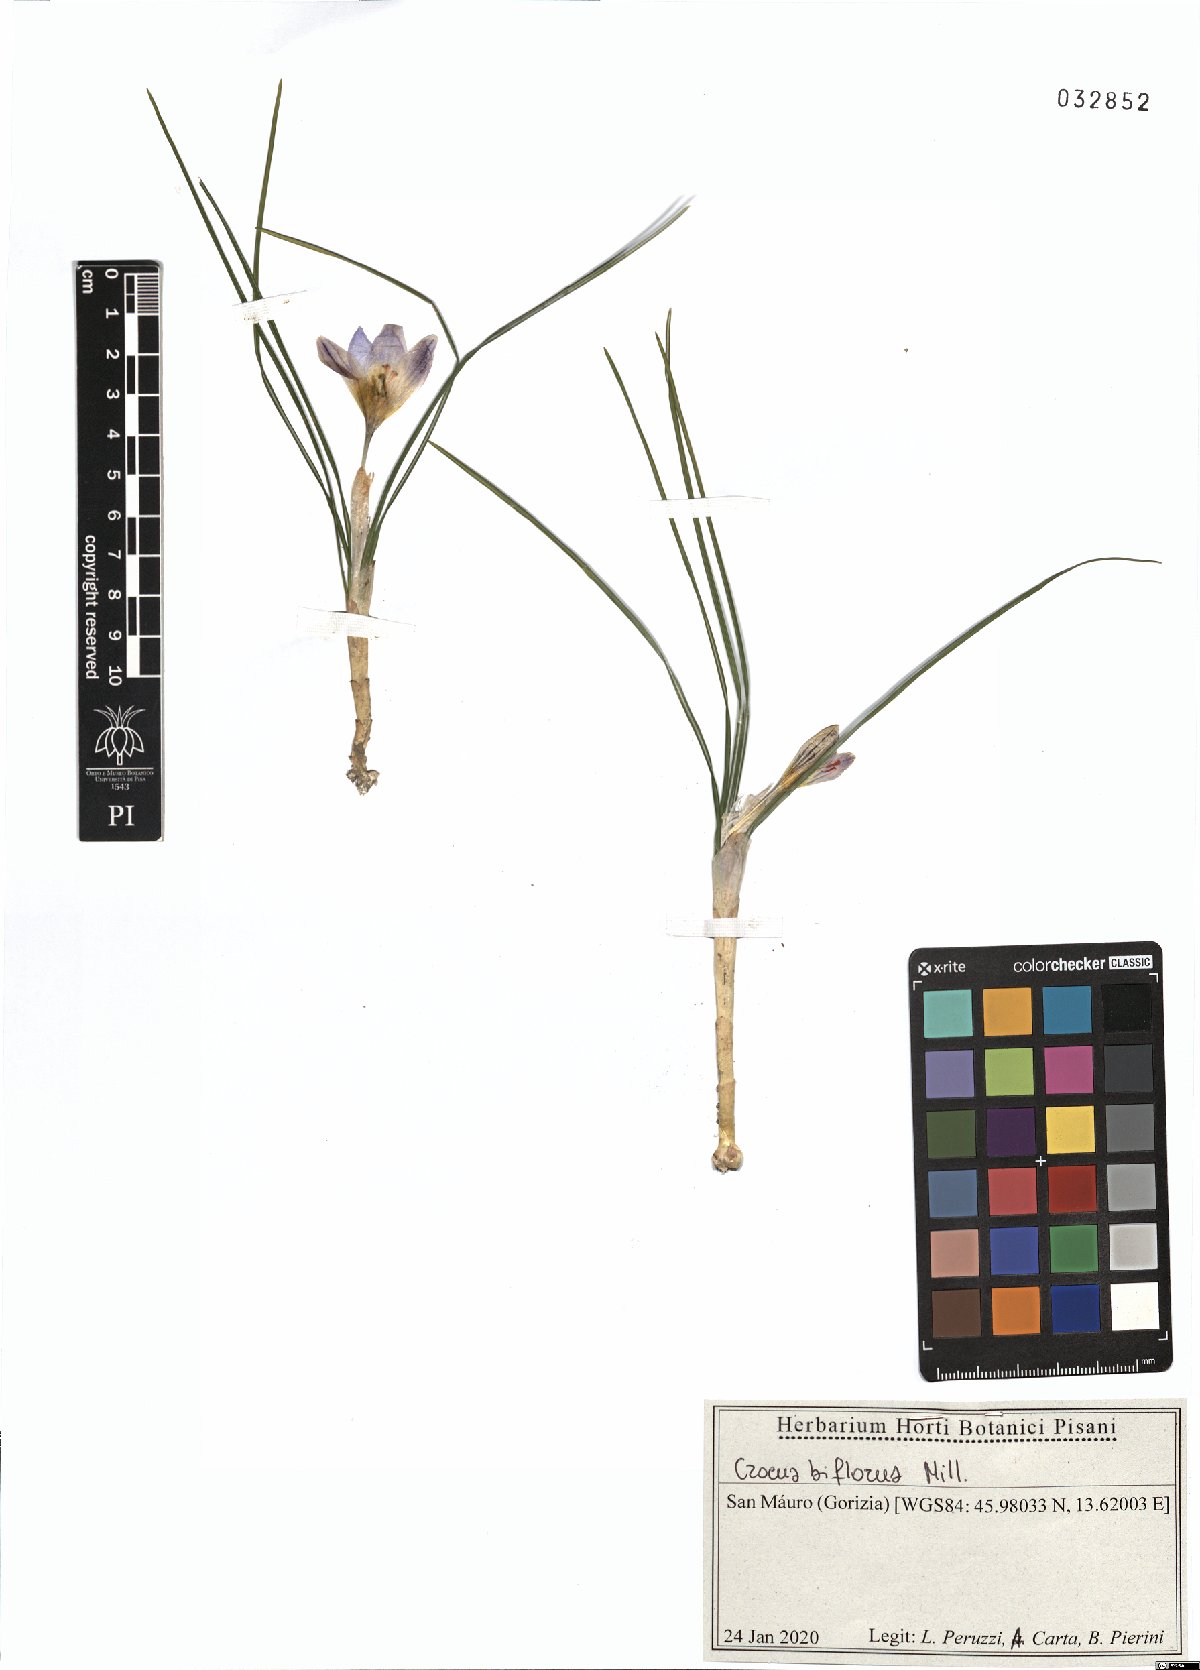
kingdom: Plantae
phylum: Tracheophyta
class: Liliopsida
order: Asparagales
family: Iridaceae
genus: Crocus
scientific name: Crocus biflorus
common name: Silvery crocus
